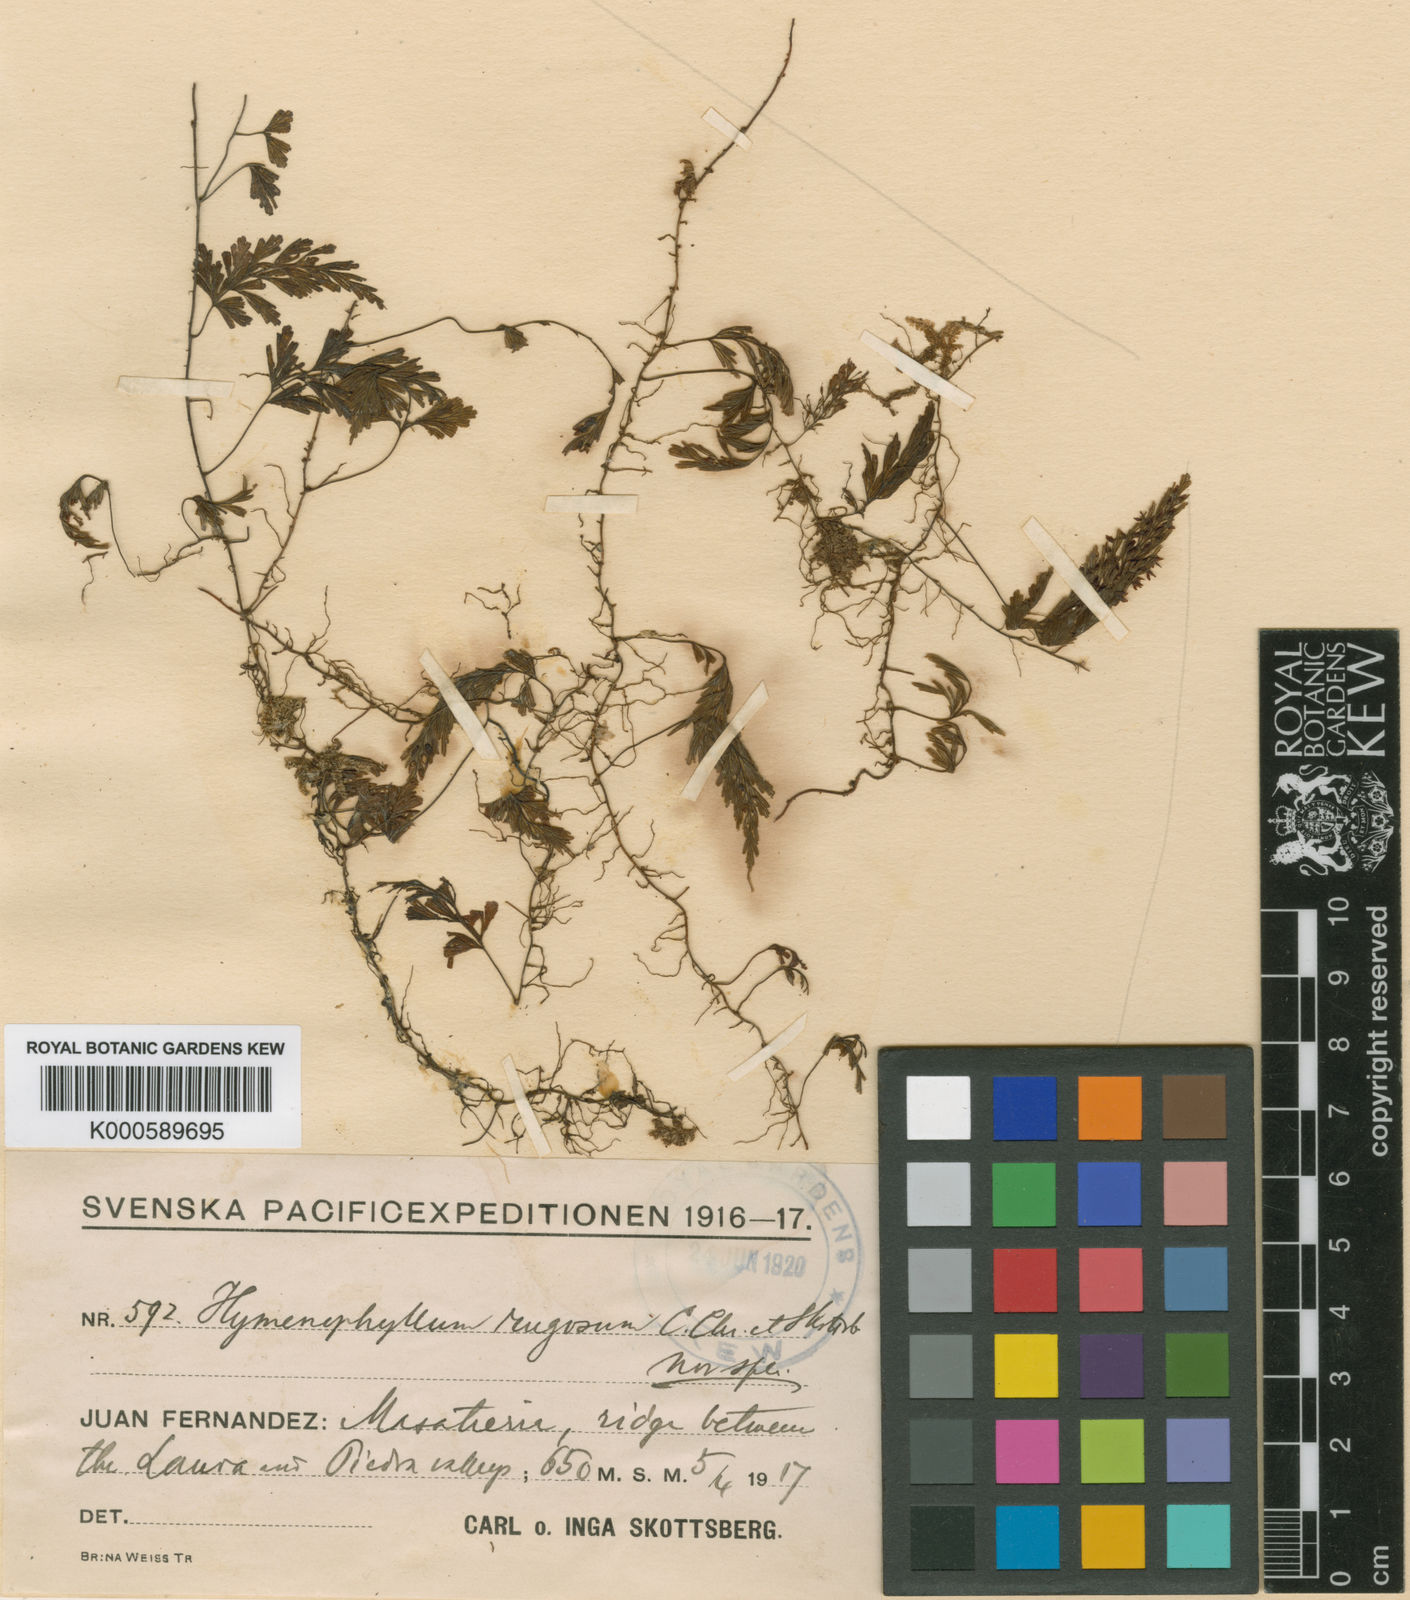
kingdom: Plantae
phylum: Tracheophyta
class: Polypodiopsida
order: Hymenophyllales
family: Hymenophyllaceae
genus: Hymenophyllum
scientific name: Hymenophyllum rugosum
